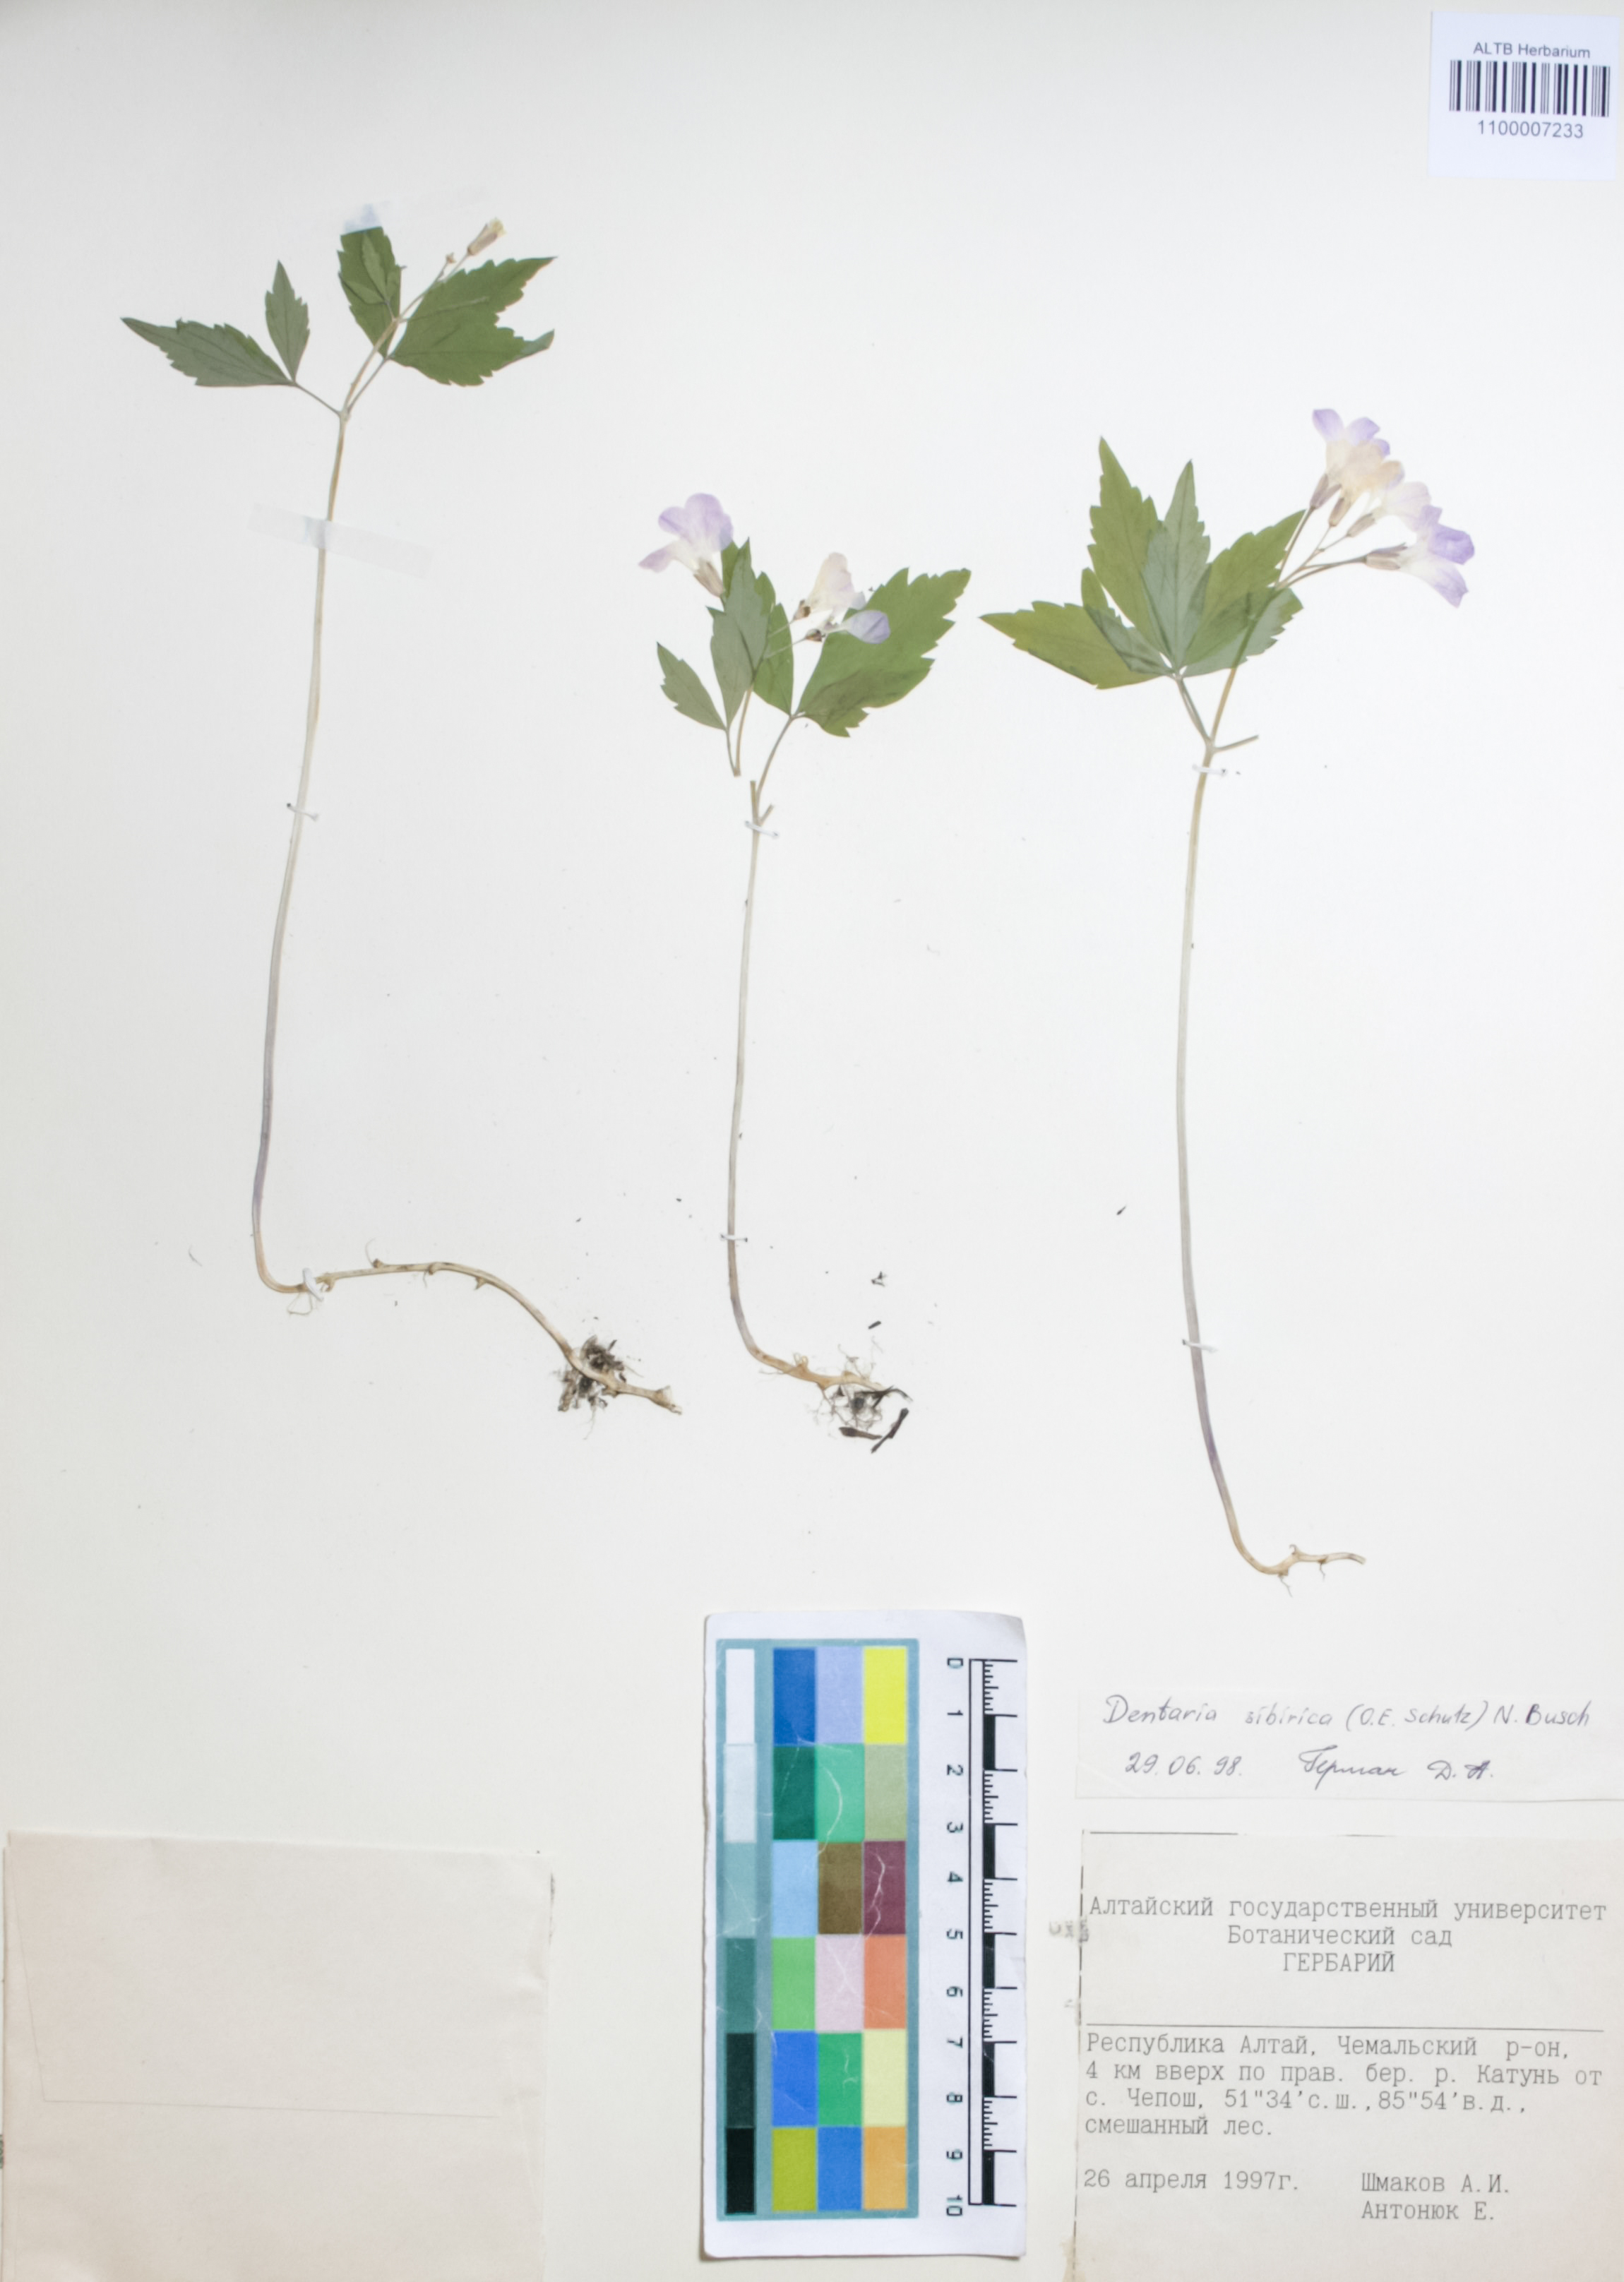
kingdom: Plantae
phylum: Tracheophyta
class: Magnoliopsida
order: Brassicales
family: Brassicaceae
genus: Cardamine
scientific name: Cardamine glanduligera
